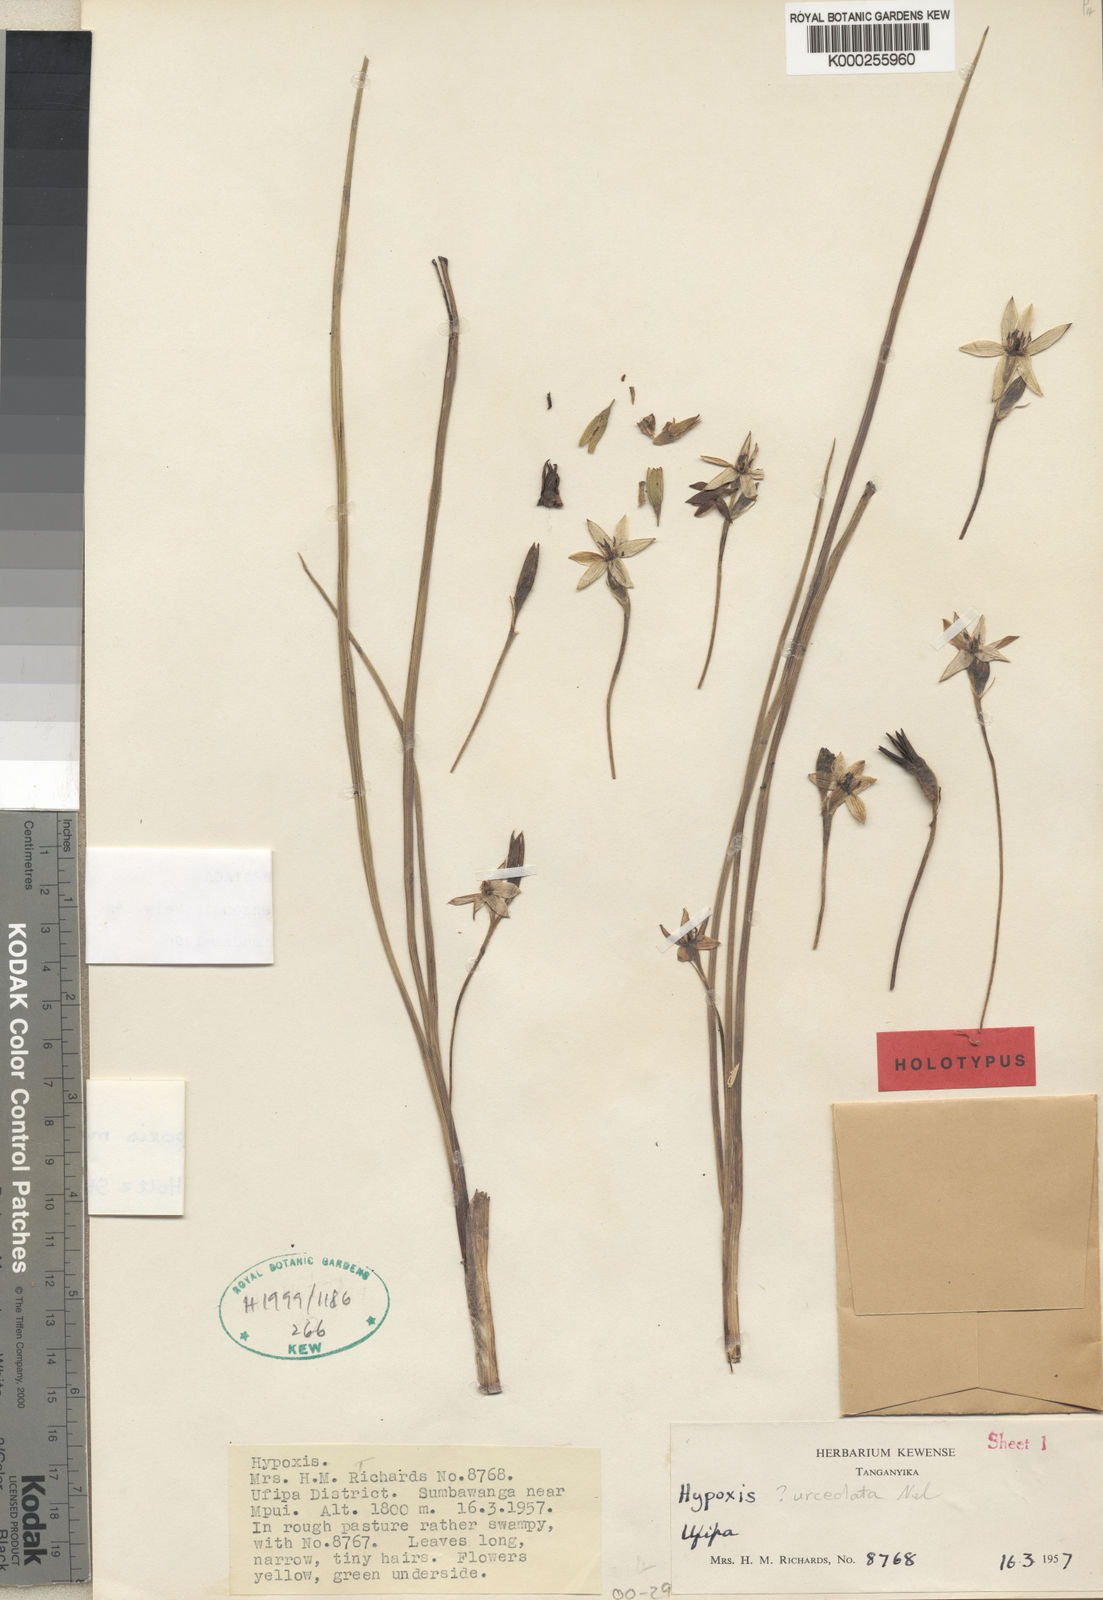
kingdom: Plantae
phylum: Tracheophyta
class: Liliopsida
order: Asparagales
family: Hypoxidaceae
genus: Hypoxis
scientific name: Hypoxis cuanzensis
